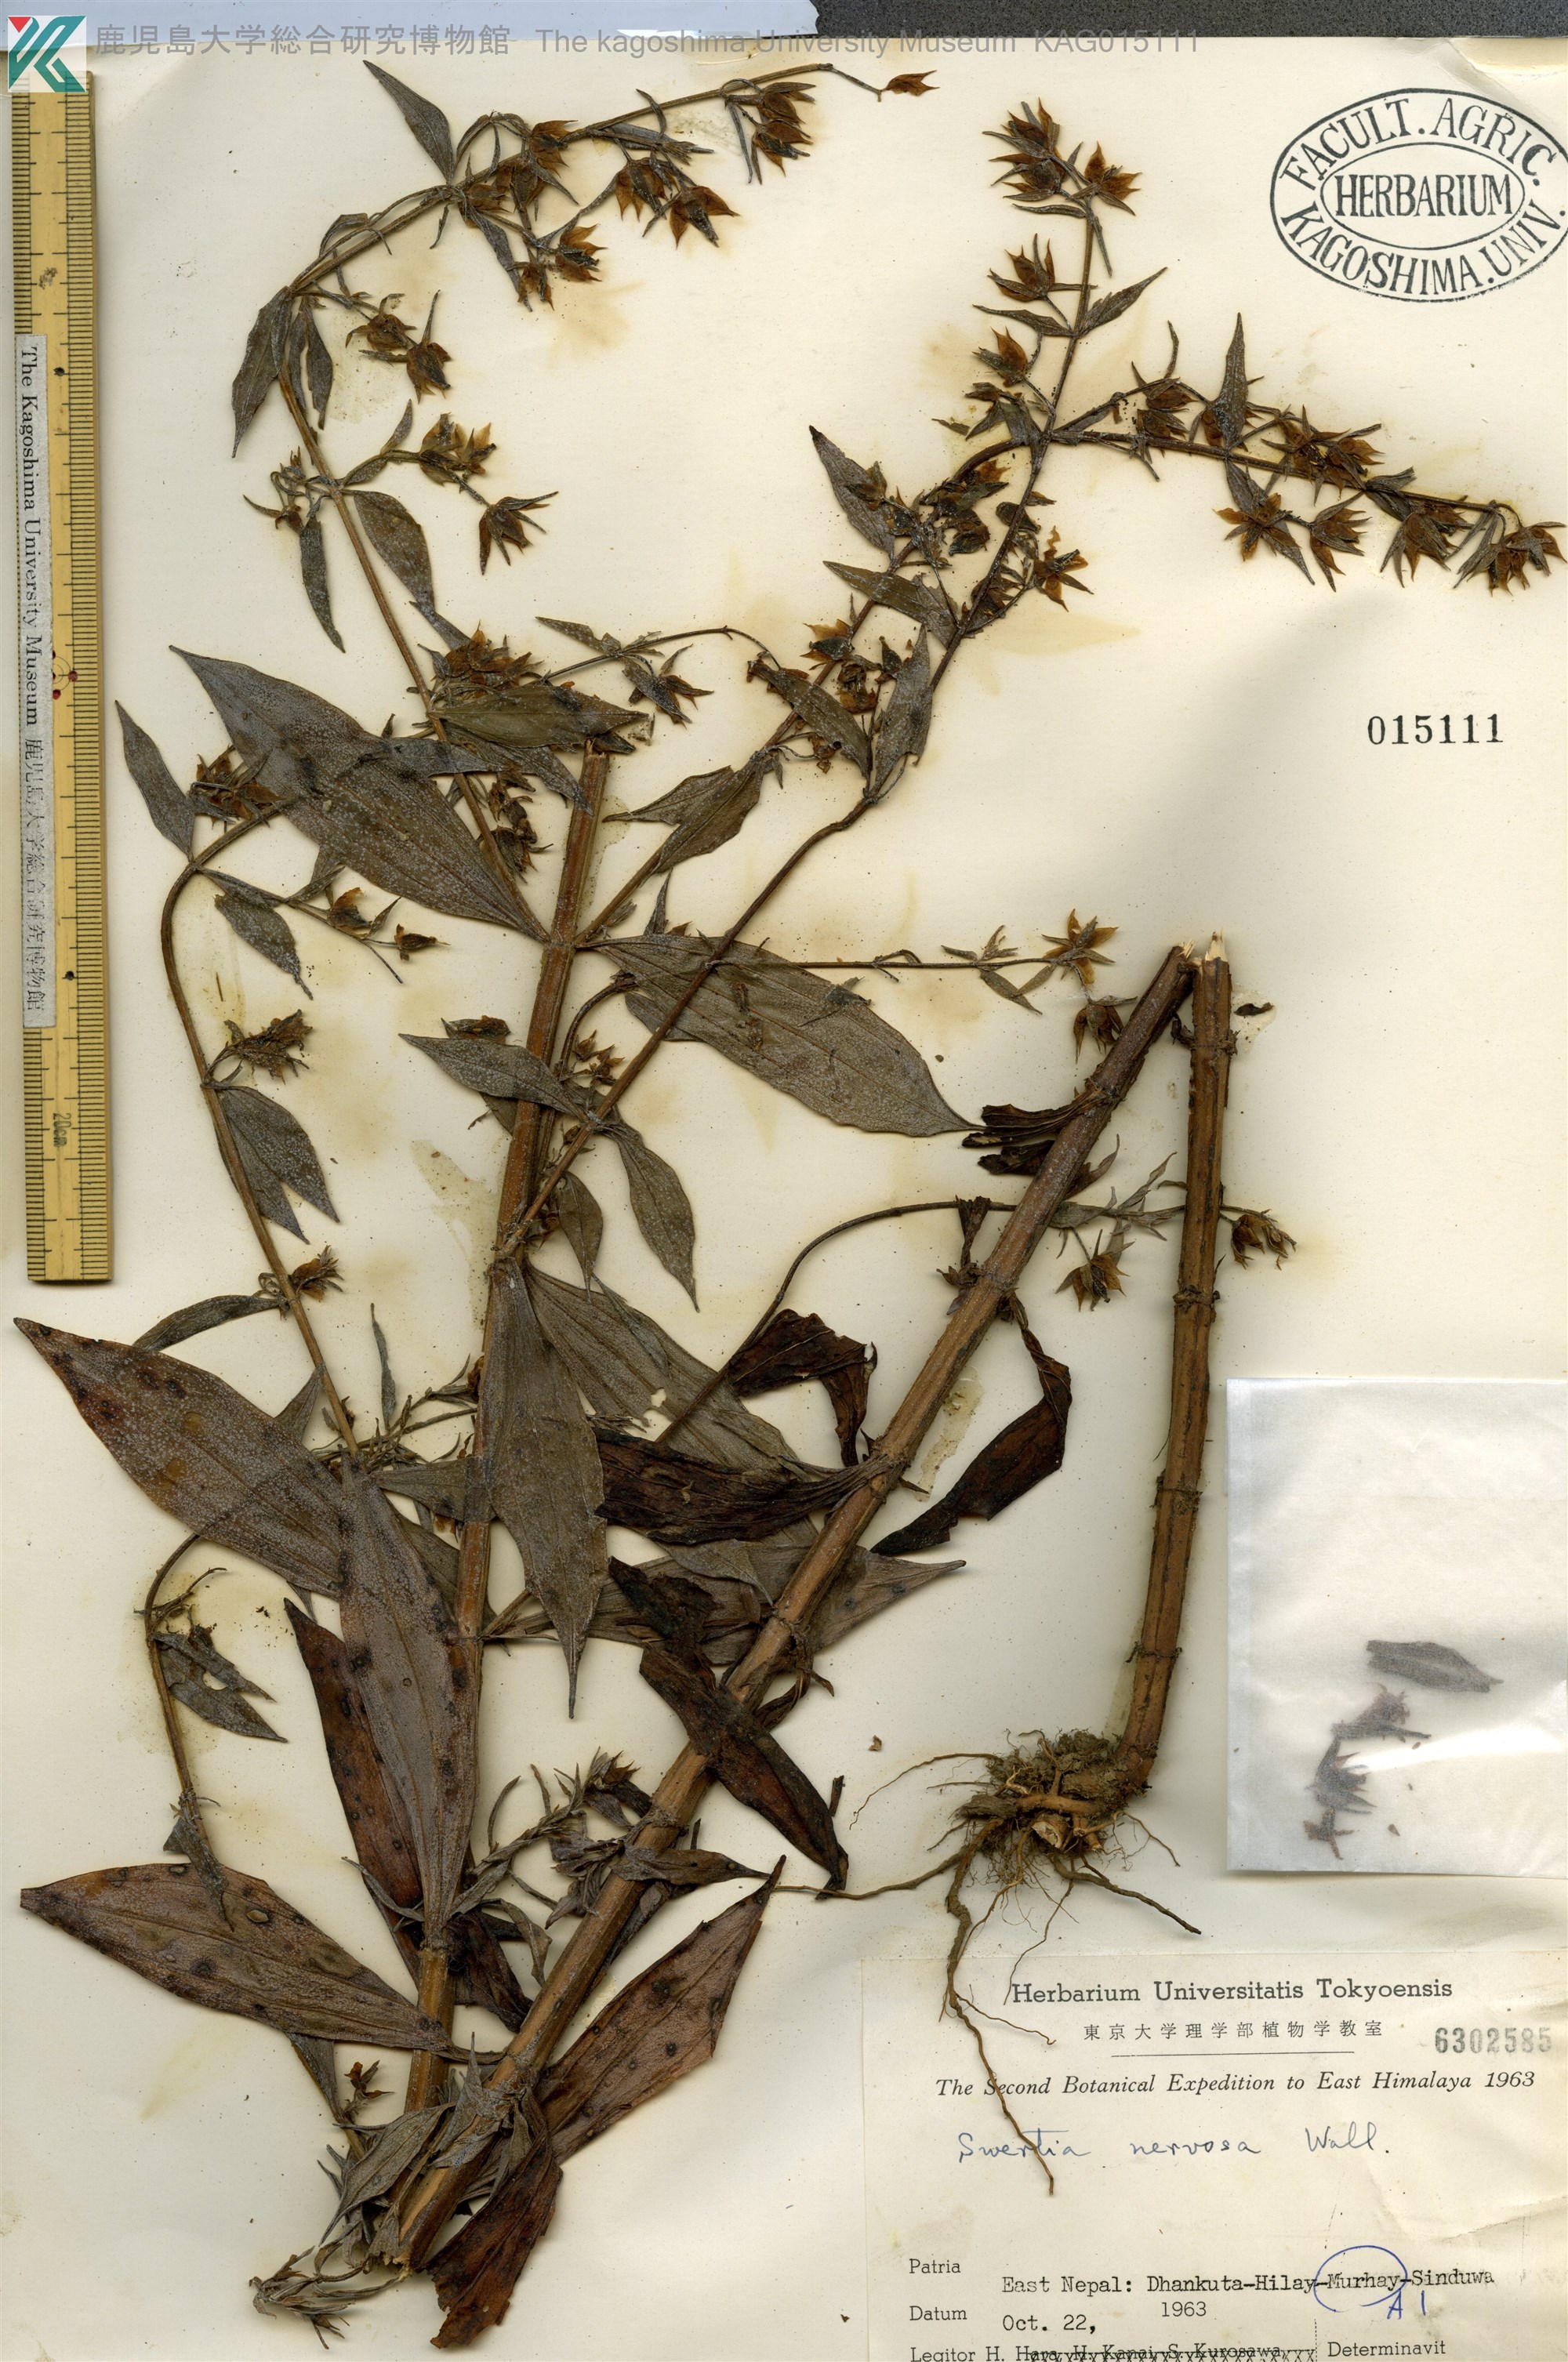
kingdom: Plantae
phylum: Tracheophyta
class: Magnoliopsida
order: Gentianales
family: Gentianaceae
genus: Swertia
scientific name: Swertia nervosa
